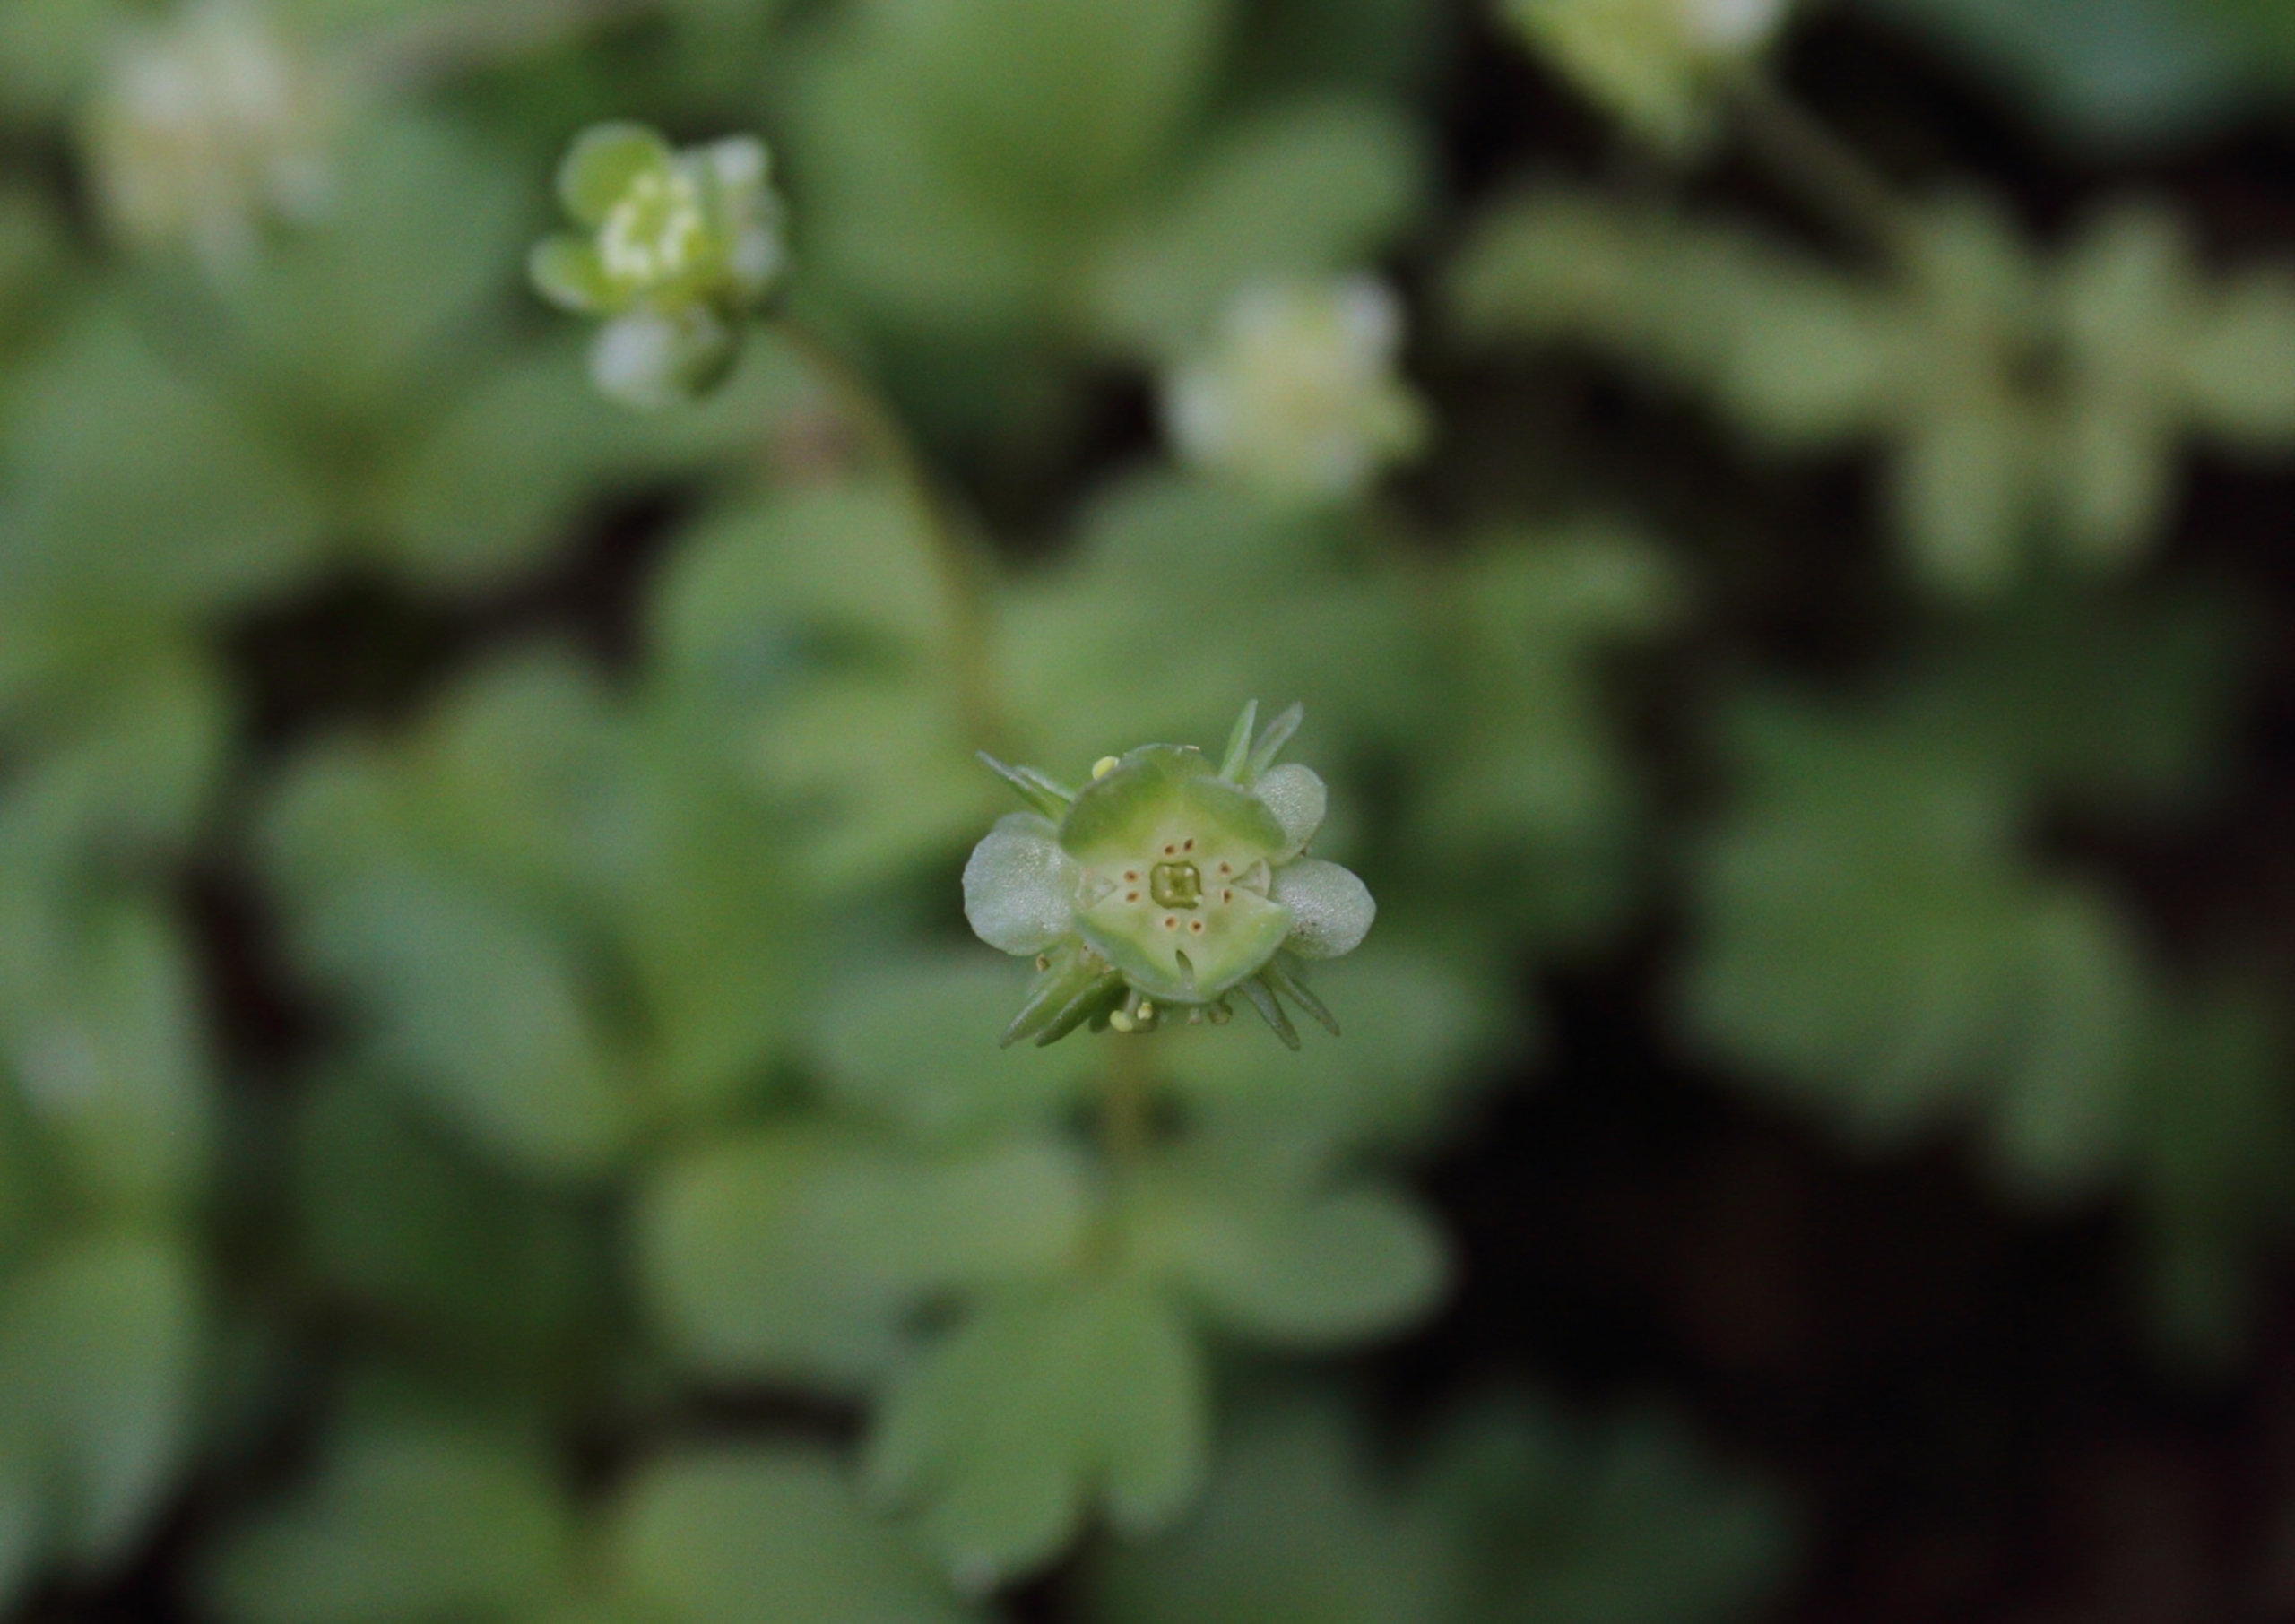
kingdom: Plantae
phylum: Tracheophyta
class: Magnoliopsida
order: Dipsacales
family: Viburnaceae
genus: Adoxa
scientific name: Adoxa moschatellina
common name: Desmerurt
